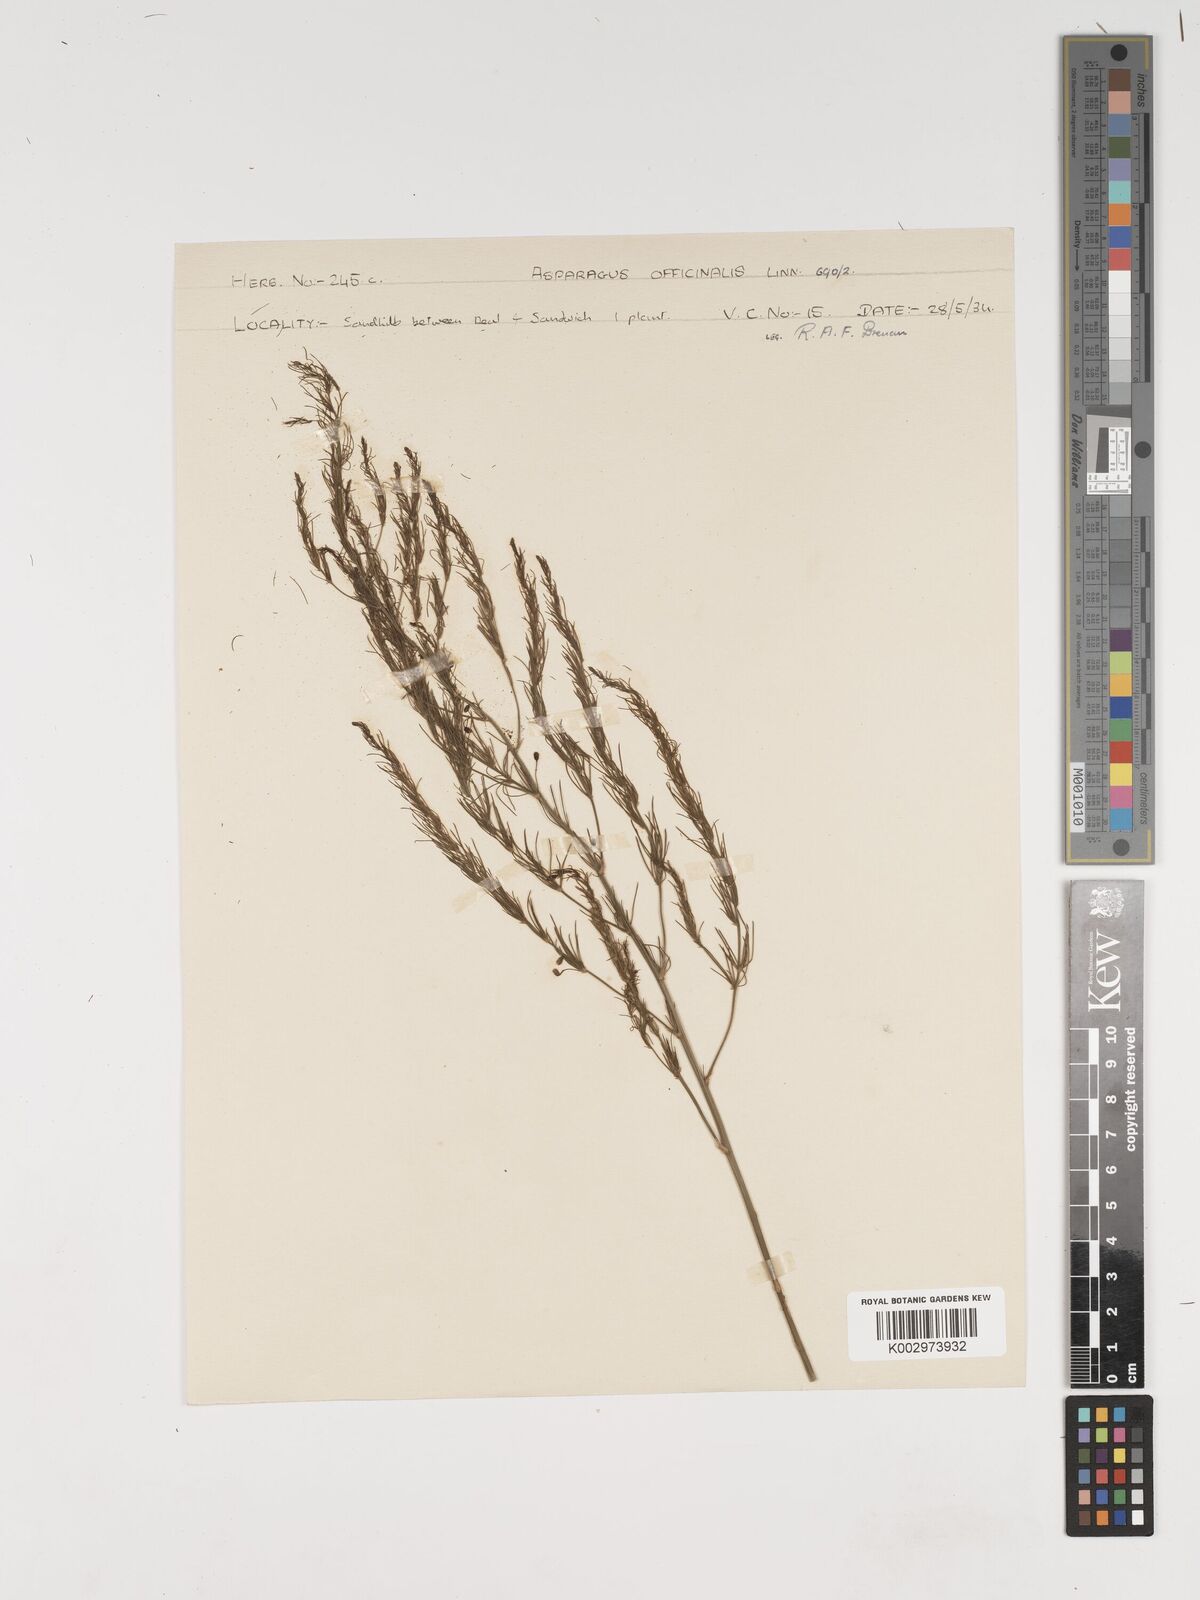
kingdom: Plantae
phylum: Tracheophyta
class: Liliopsida
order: Asparagales
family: Asparagaceae
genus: Asparagus
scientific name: Asparagus officinalis
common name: Garden asparagus
